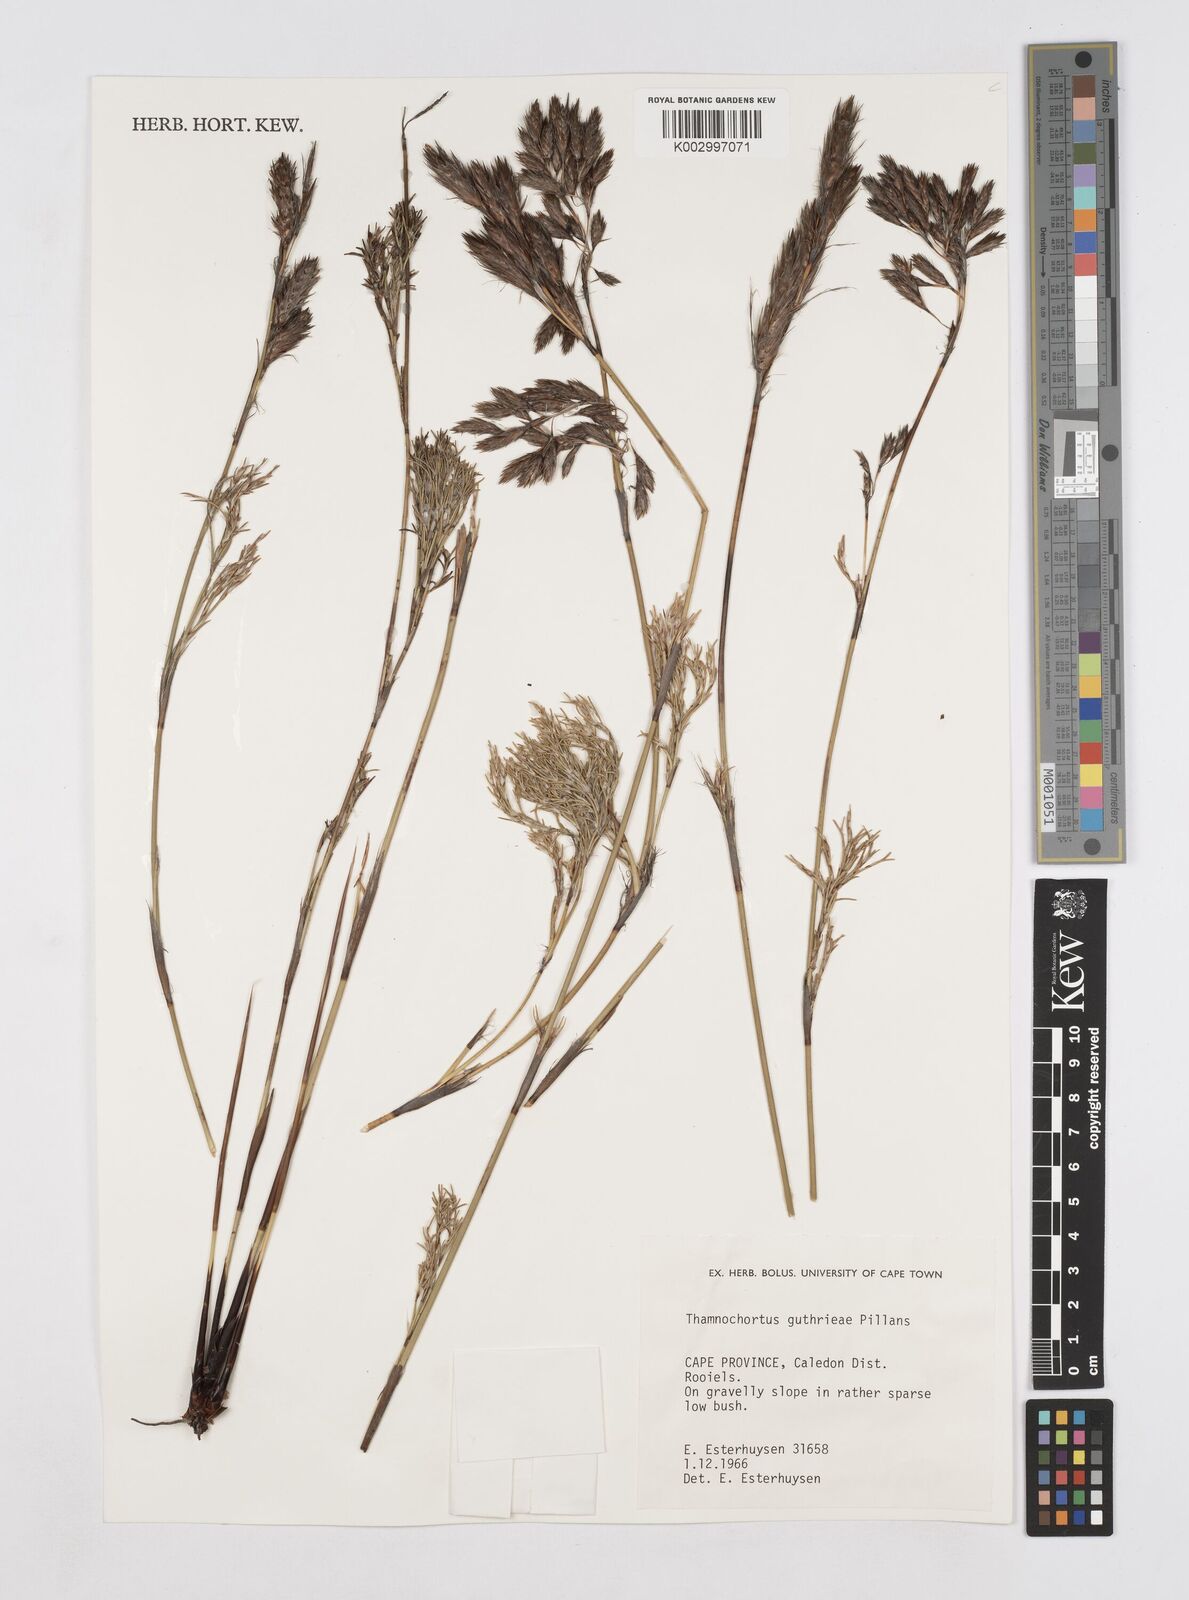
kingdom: Plantae
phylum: Tracheophyta
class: Liliopsida
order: Poales
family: Restionaceae
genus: Thamnochortus
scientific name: Thamnochortus guthrieae
